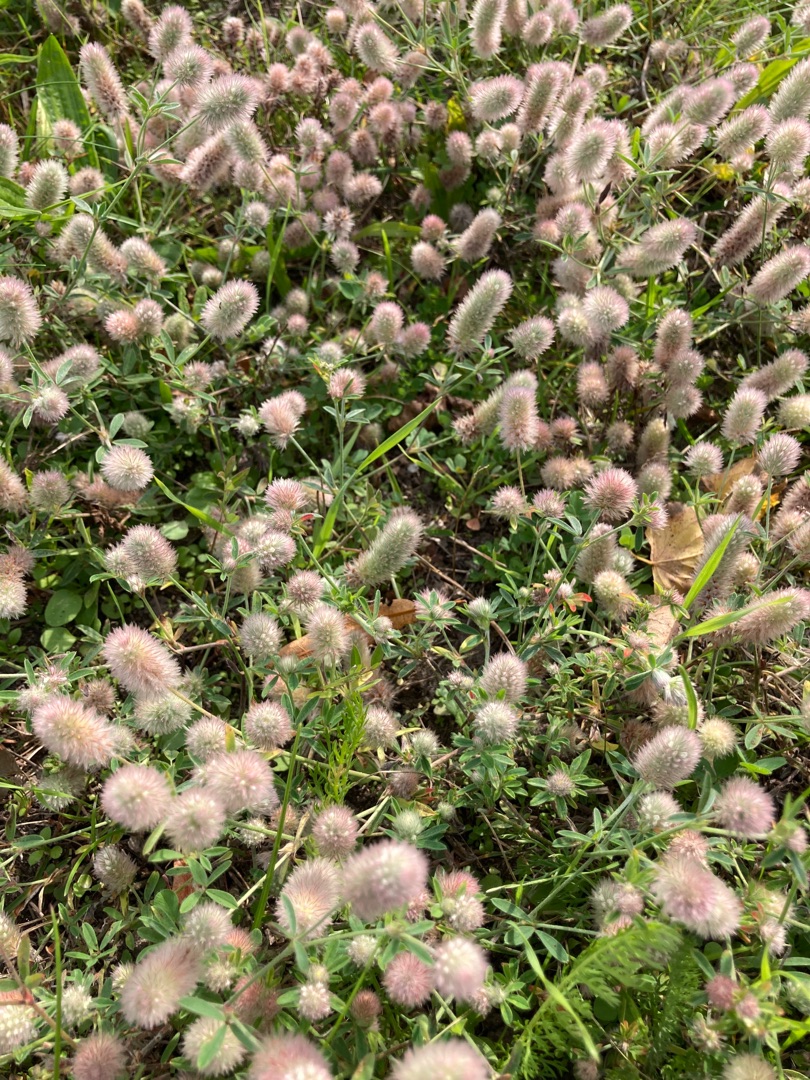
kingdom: Plantae
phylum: Tracheophyta
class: Magnoliopsida
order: Fabales
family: Fabaceae
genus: Trifolium
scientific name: Trifolium arvense
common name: Hare-kløver
